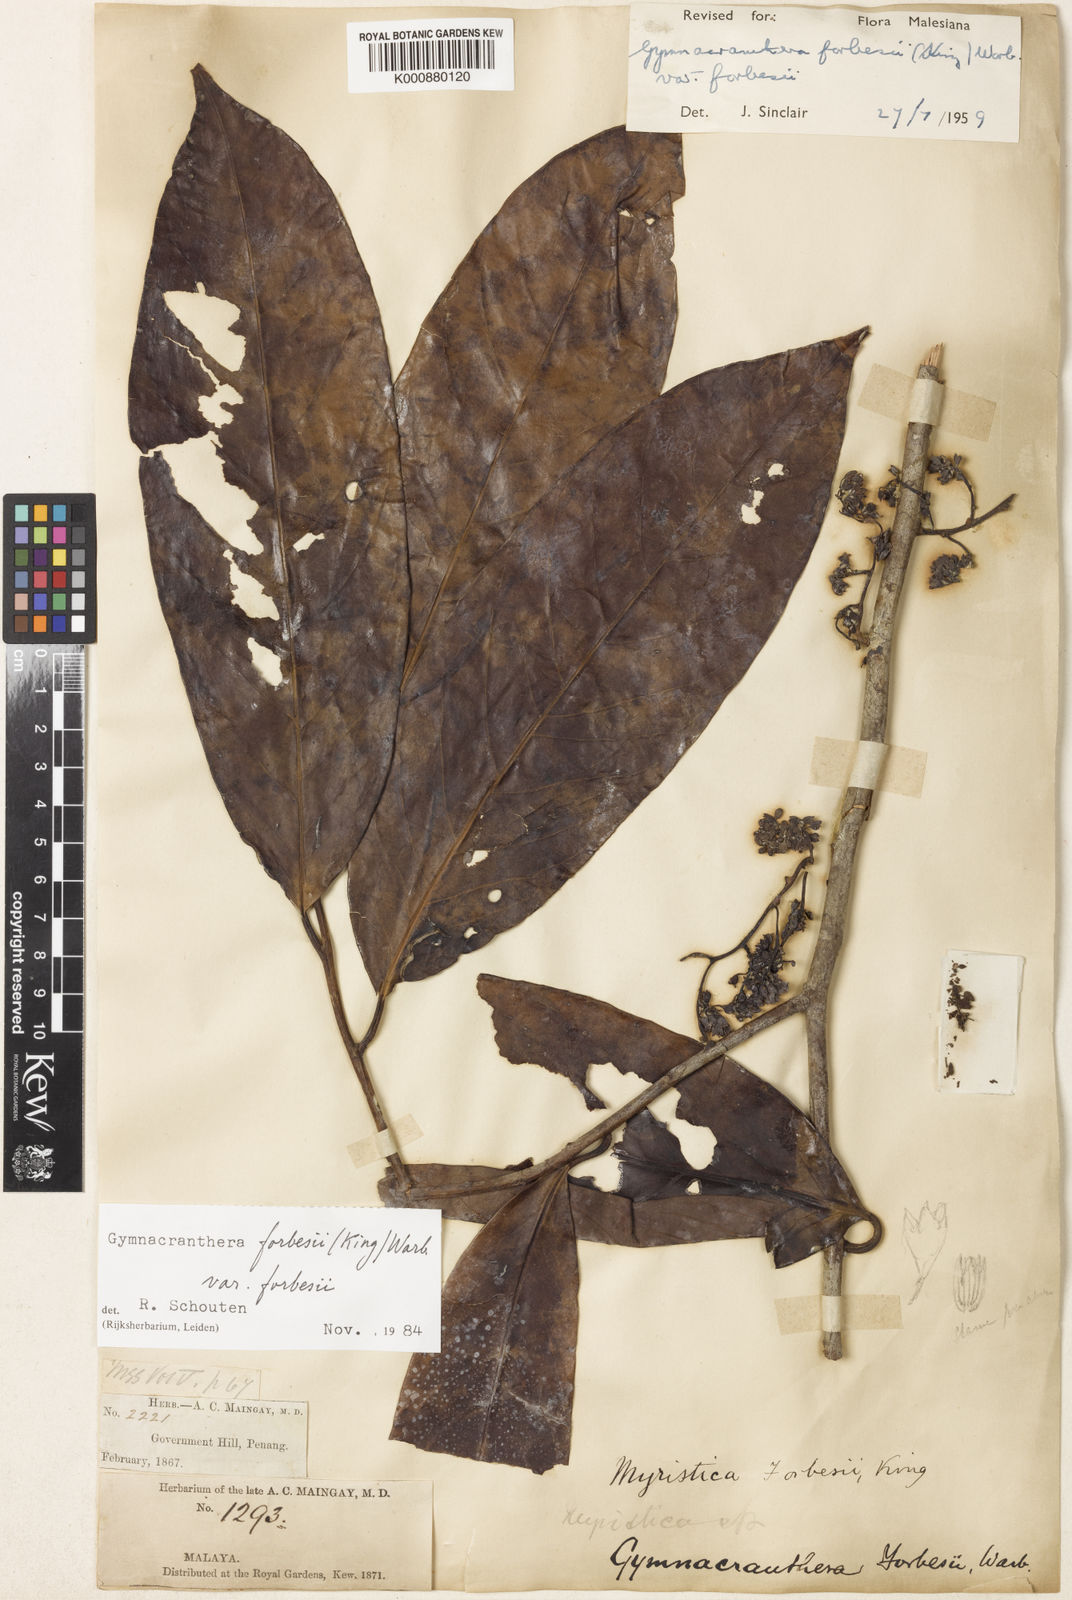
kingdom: Plantae
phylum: Tracheophyta
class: Magnoliopsida
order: Magnoliales
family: Myristicaceae
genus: Gymnacranthera
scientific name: Gymnacranthera forbesii
